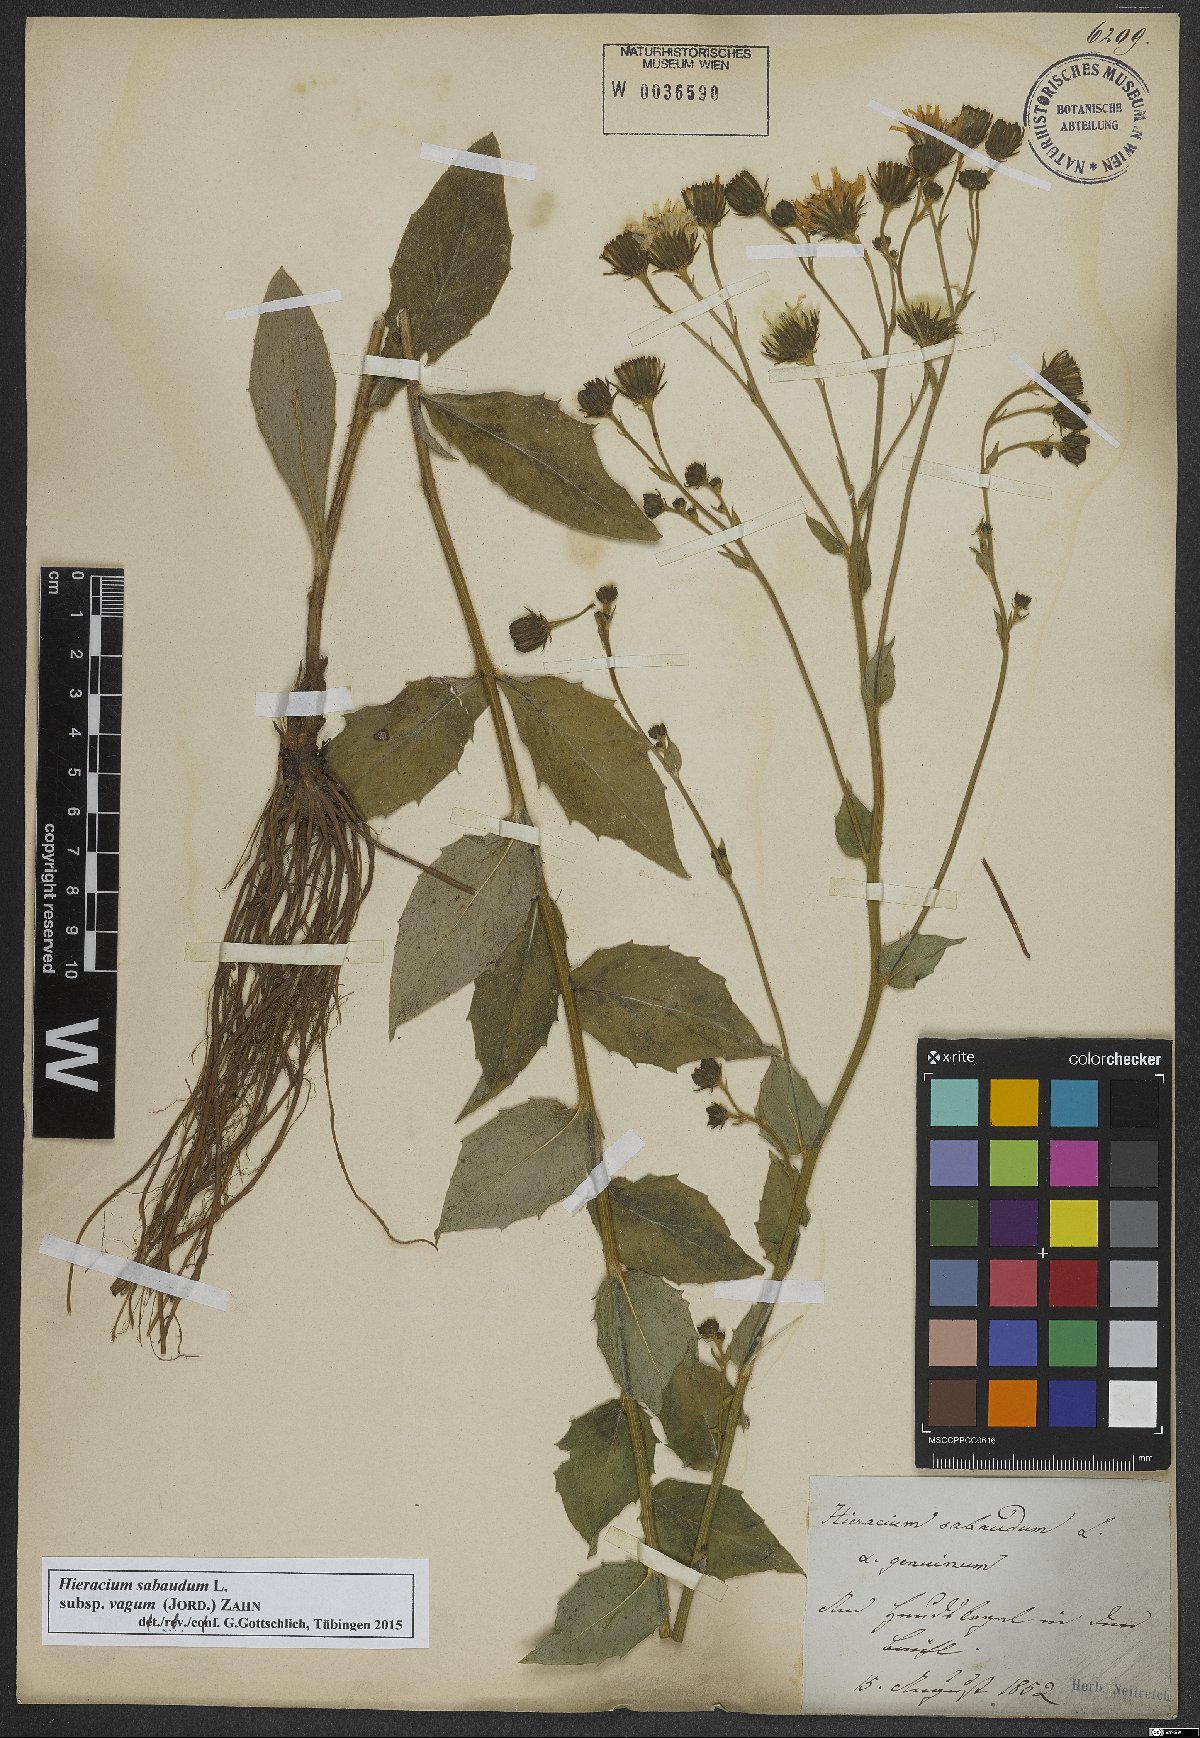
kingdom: Plantae
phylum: Tracheophyta
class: Magnoliopsida
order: Asterales
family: Asteraceae
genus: Hieracium
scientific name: Hieracium sabaudum
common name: New england hawkweed
